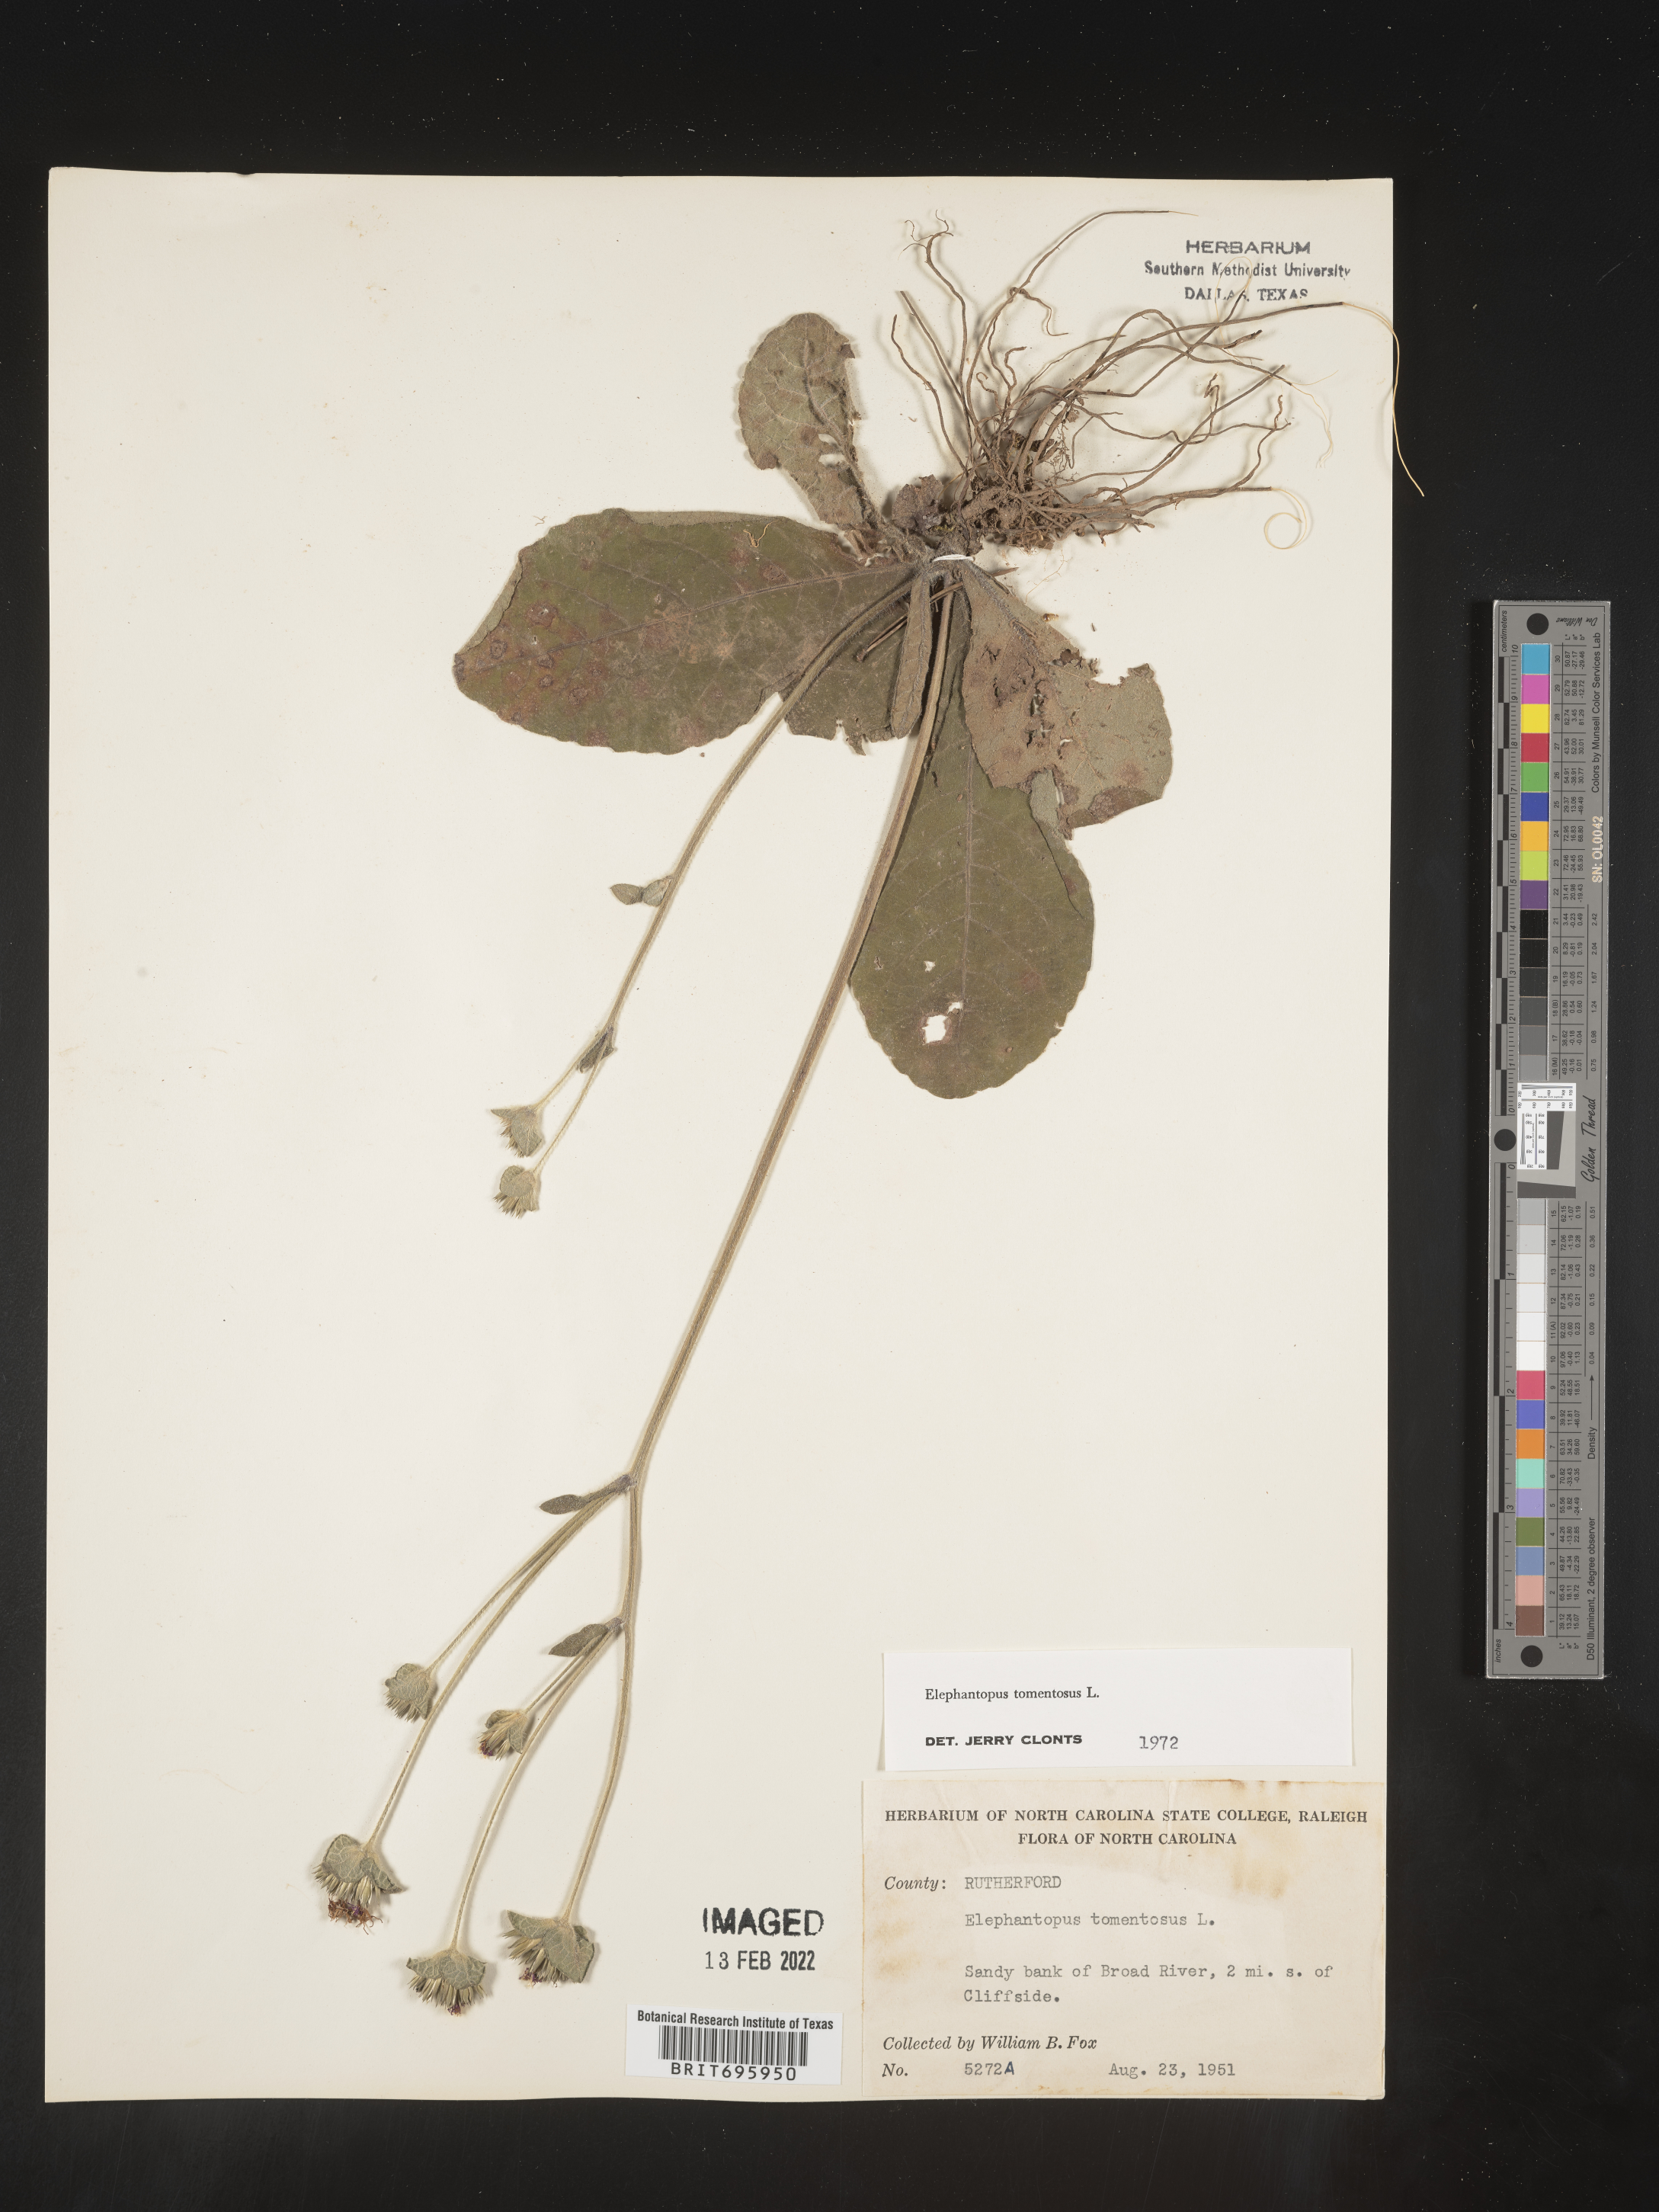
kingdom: Plantae
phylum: Tracheophyta
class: Magnoliopsida
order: Asterales
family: Asteraceae
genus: Elephantopus
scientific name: Elephantopus tomentosus
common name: Tobacco-weed
